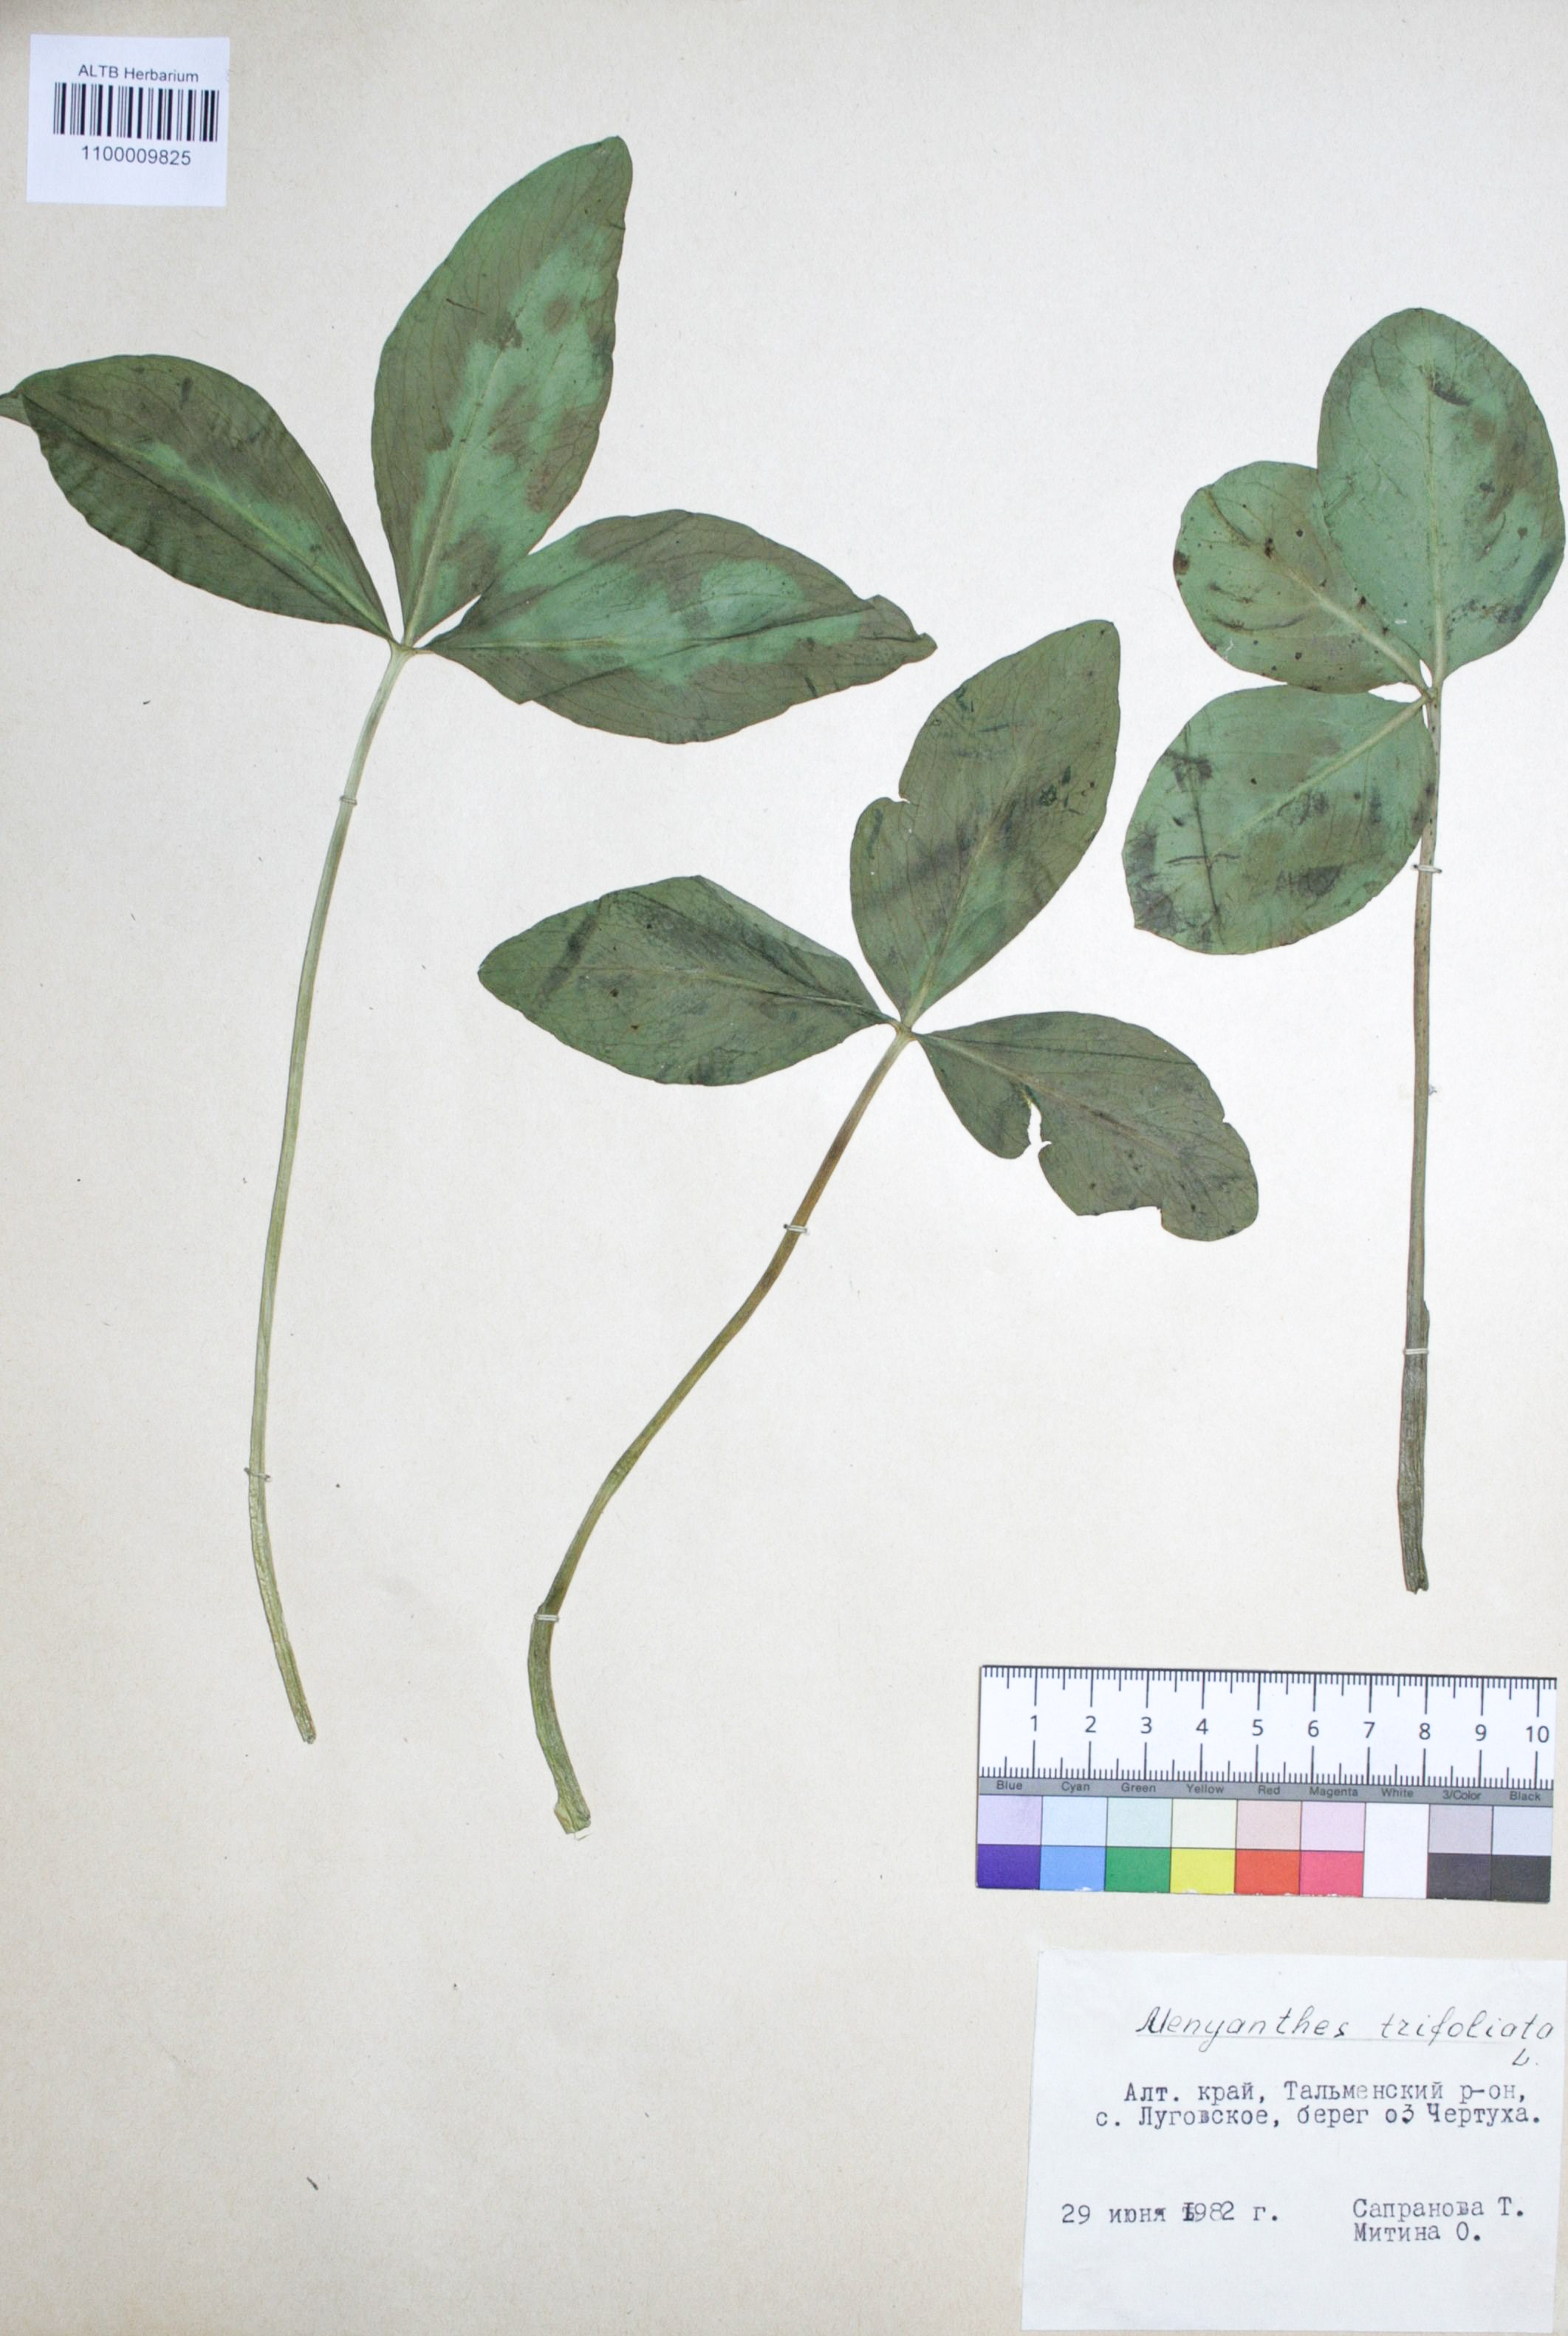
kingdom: Plantae
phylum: Tracheophyta
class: Magnoliopsida
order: Asterales
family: Menyanthaceae
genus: Menyanthes
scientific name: Menyanthes trifoliata
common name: Bogbean
